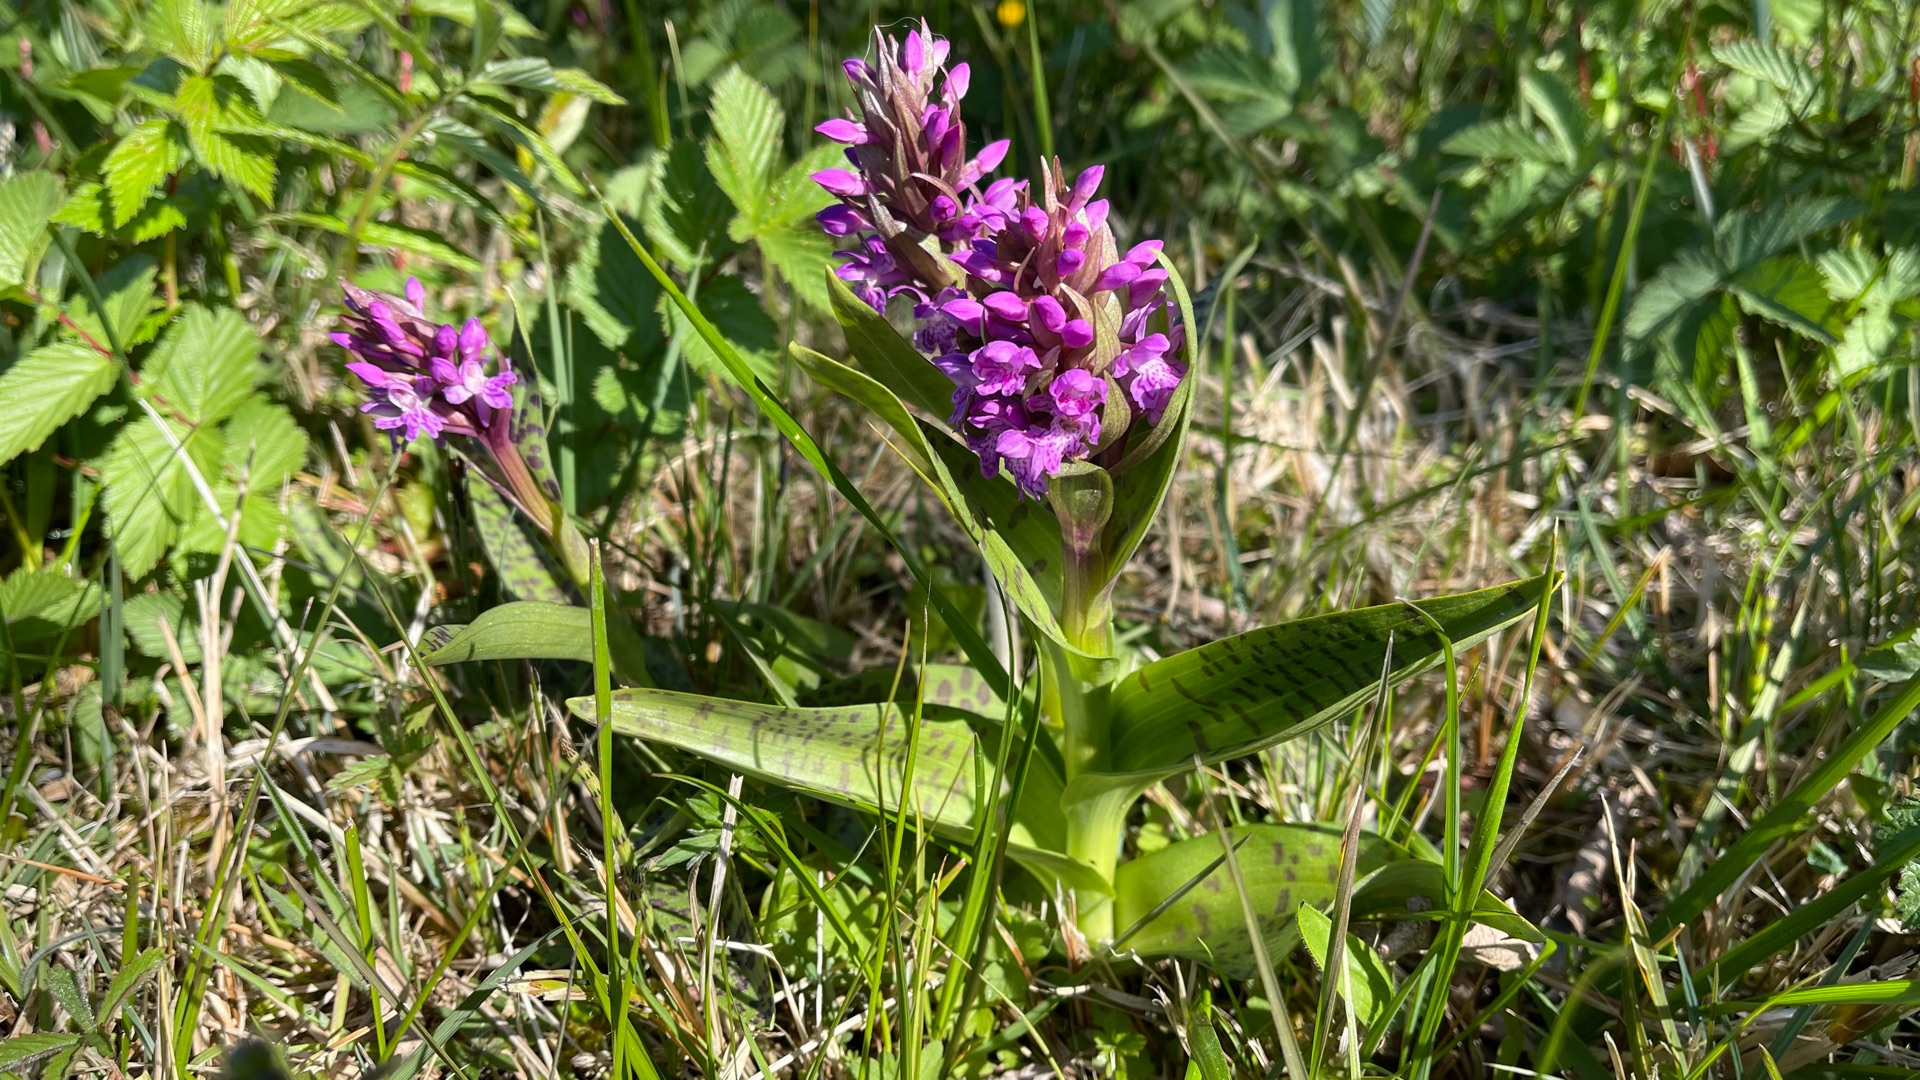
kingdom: Plantae
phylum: Tracheophyta
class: Liliopsida
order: Asparagales
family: Orchidaceae
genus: Dactylorhiza
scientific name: Dactylorhiza majalis
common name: Maj-gøgeurt
